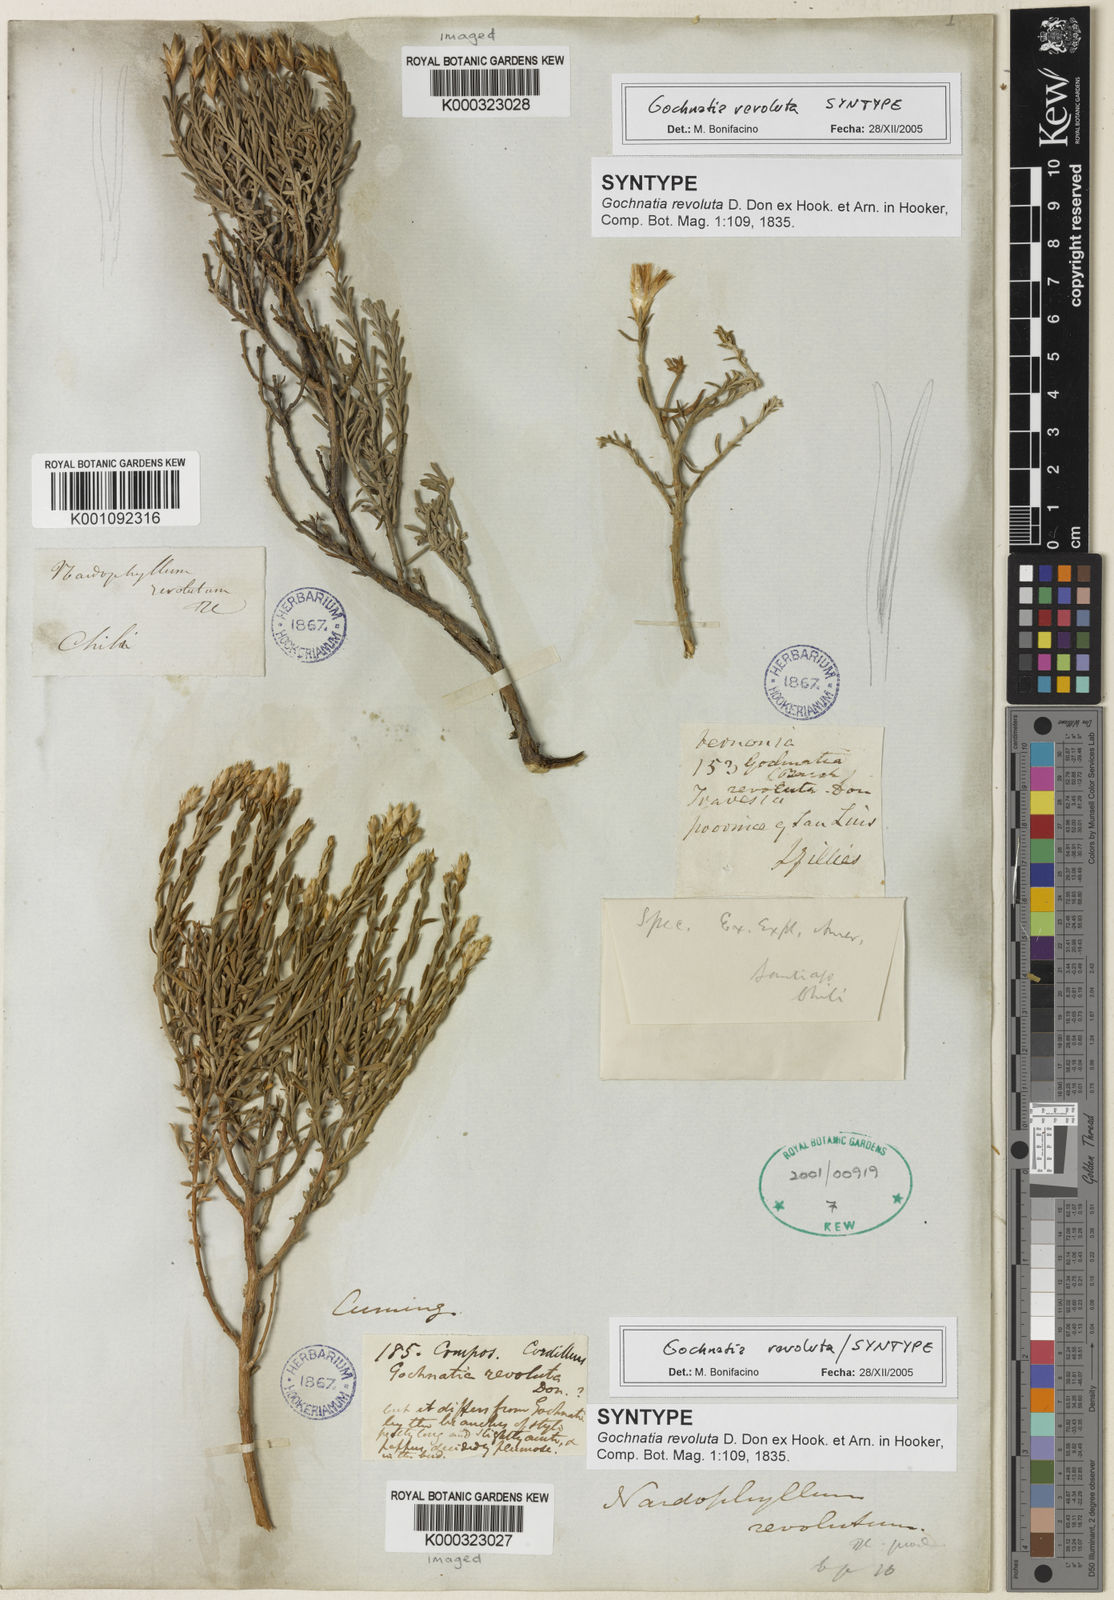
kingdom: Plantae
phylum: Tracheophyta
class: Magnoliopsida
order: Asterales
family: Asteraceae
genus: Nardophyllum
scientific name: Nardophyllum lanatum
